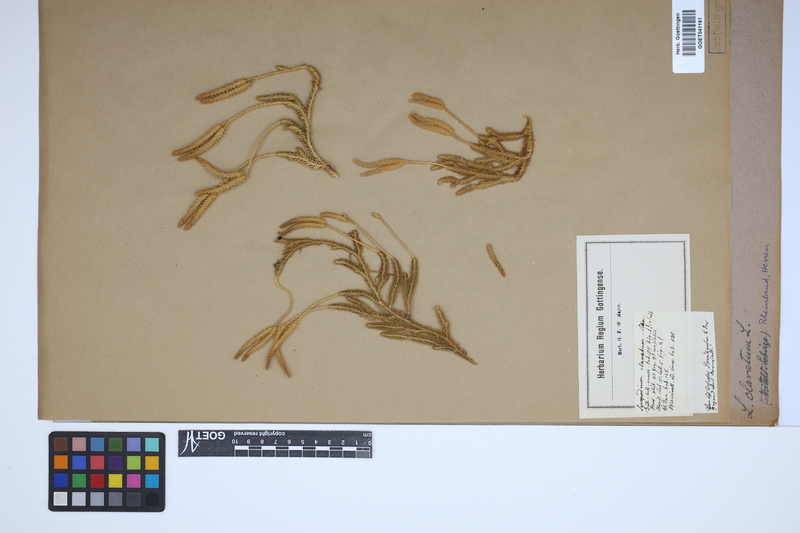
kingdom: Plantae
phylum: Tracheophyta
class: Lycopodiopsida
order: Lycopodiales
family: Lycopodiaceae
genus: Lycopodium
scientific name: Lycopodium clavatum
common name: Stag's-horn clubmoss
